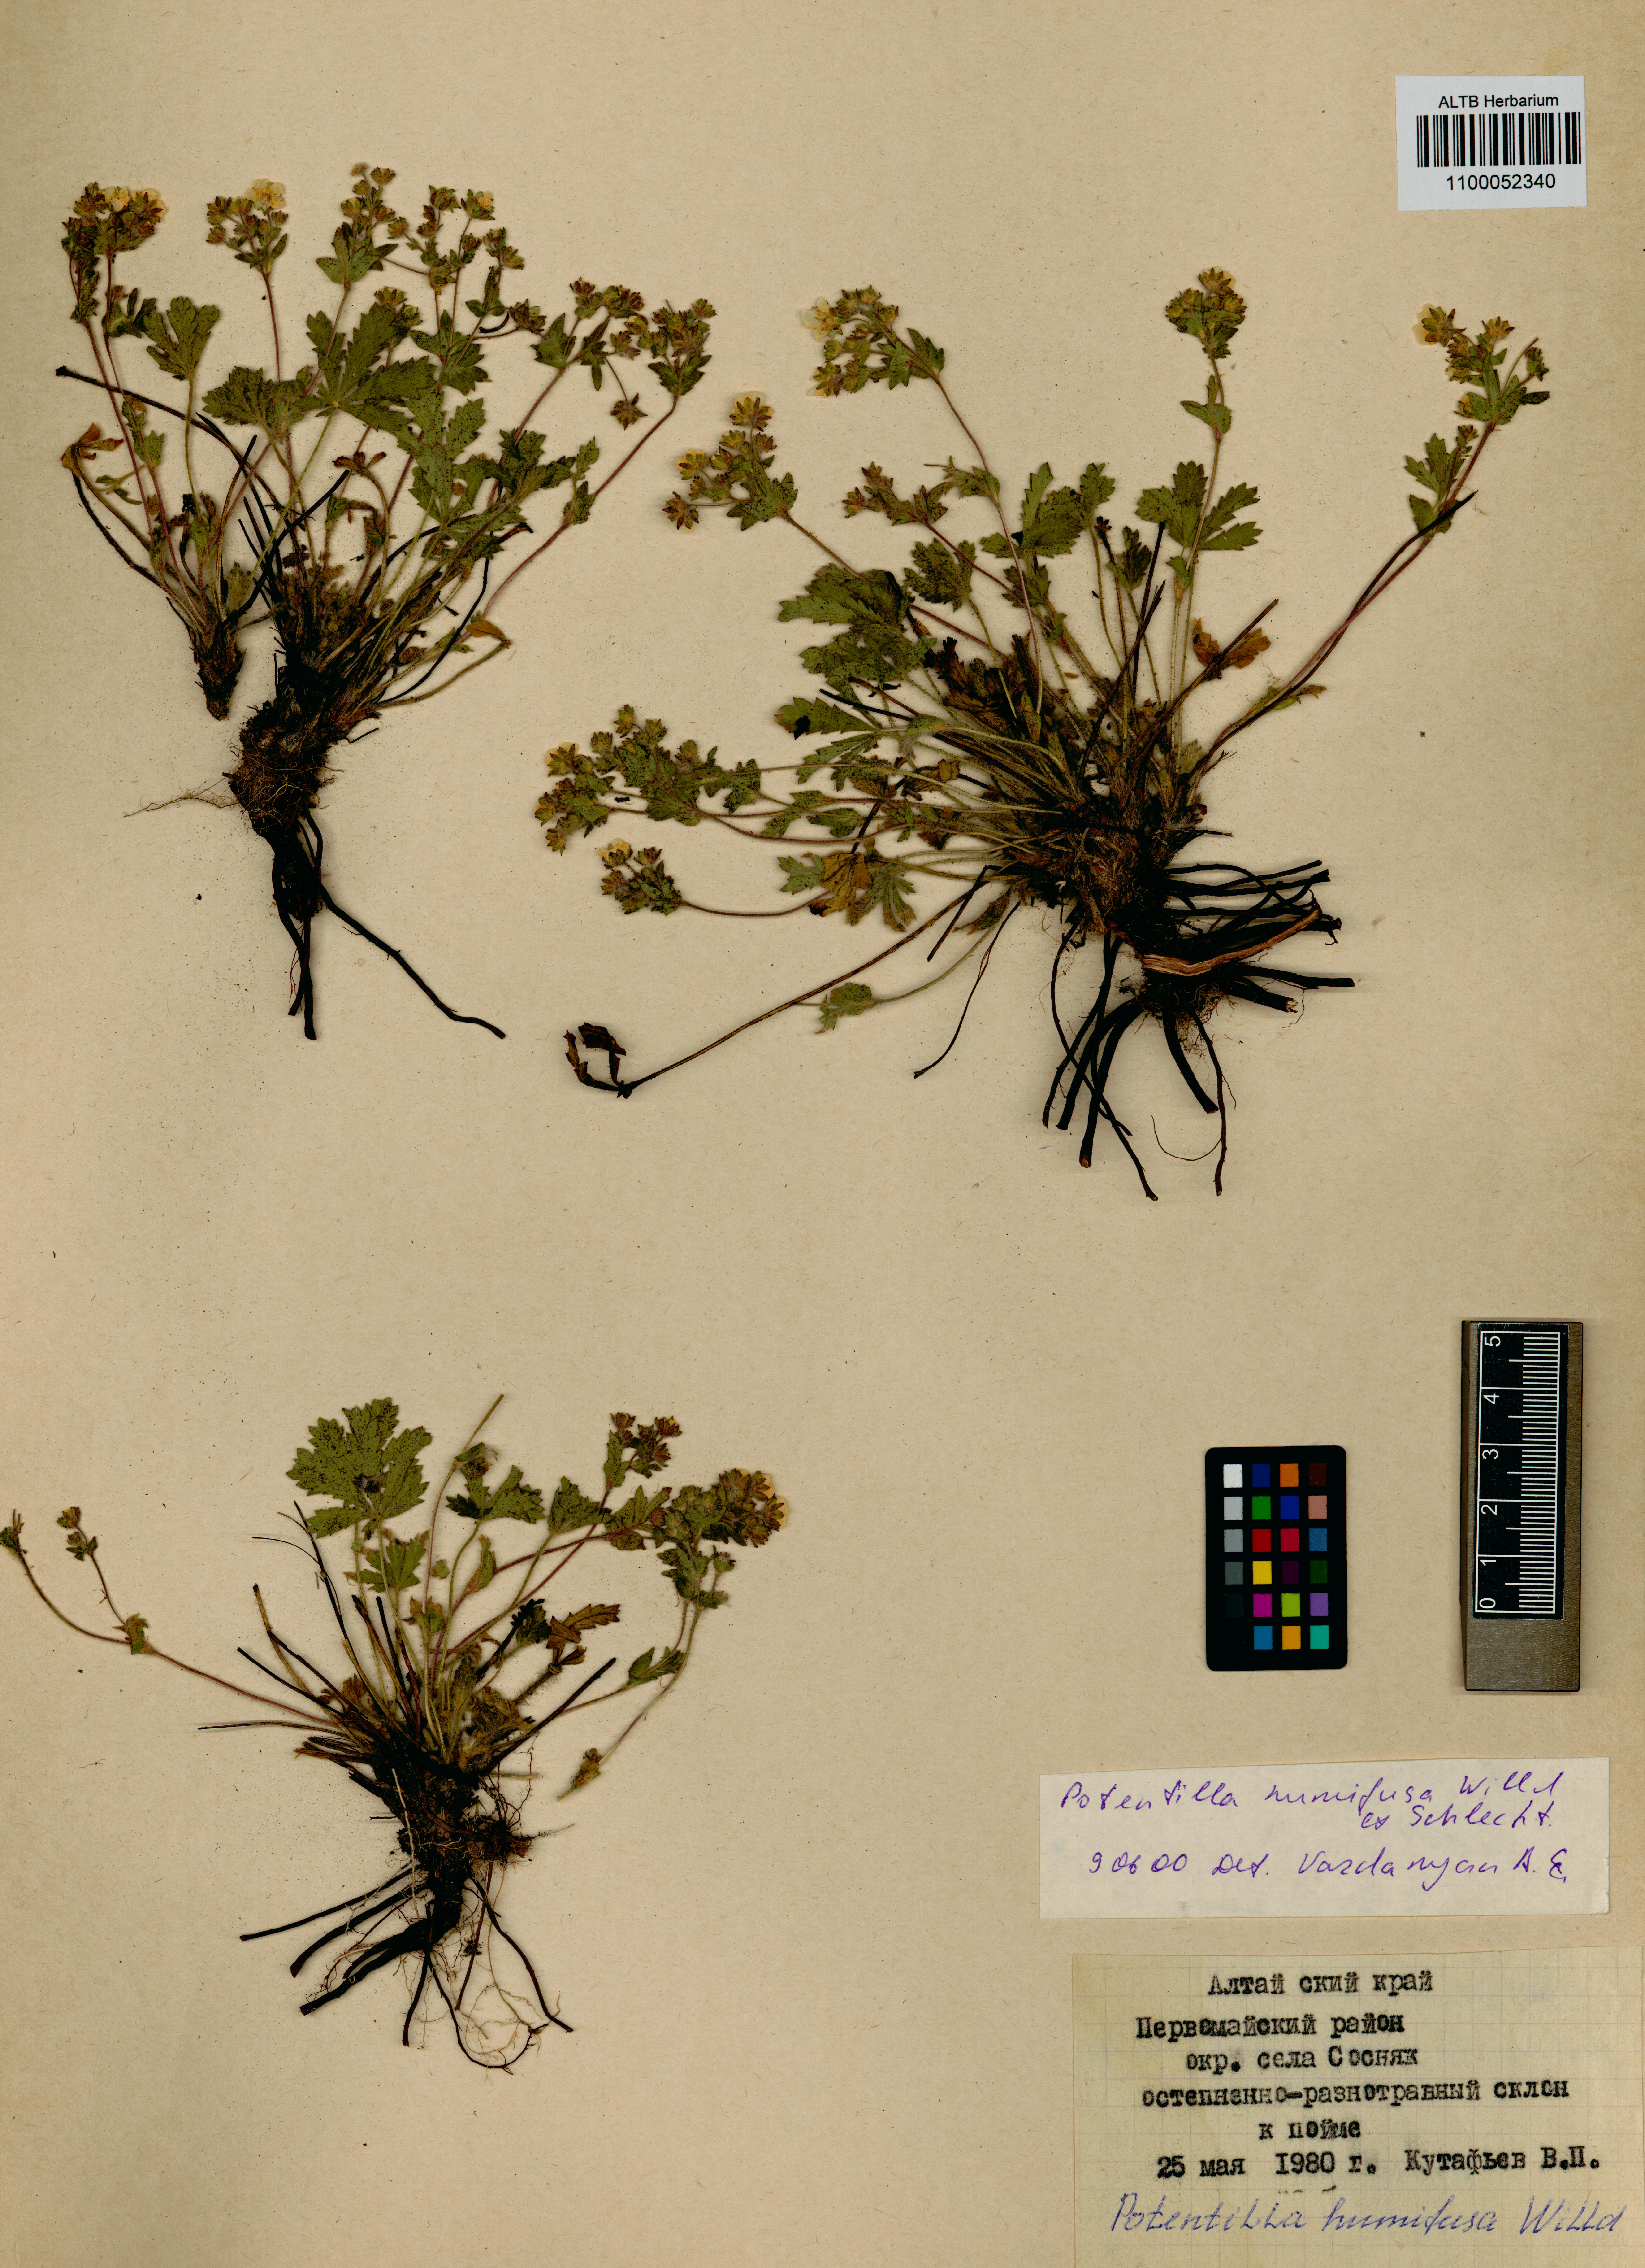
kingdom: Plantae
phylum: Tracheophyta
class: Magnoliopsida
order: Rosales
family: Rosaceae
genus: Potentilla
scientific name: Potentilla humifusa
